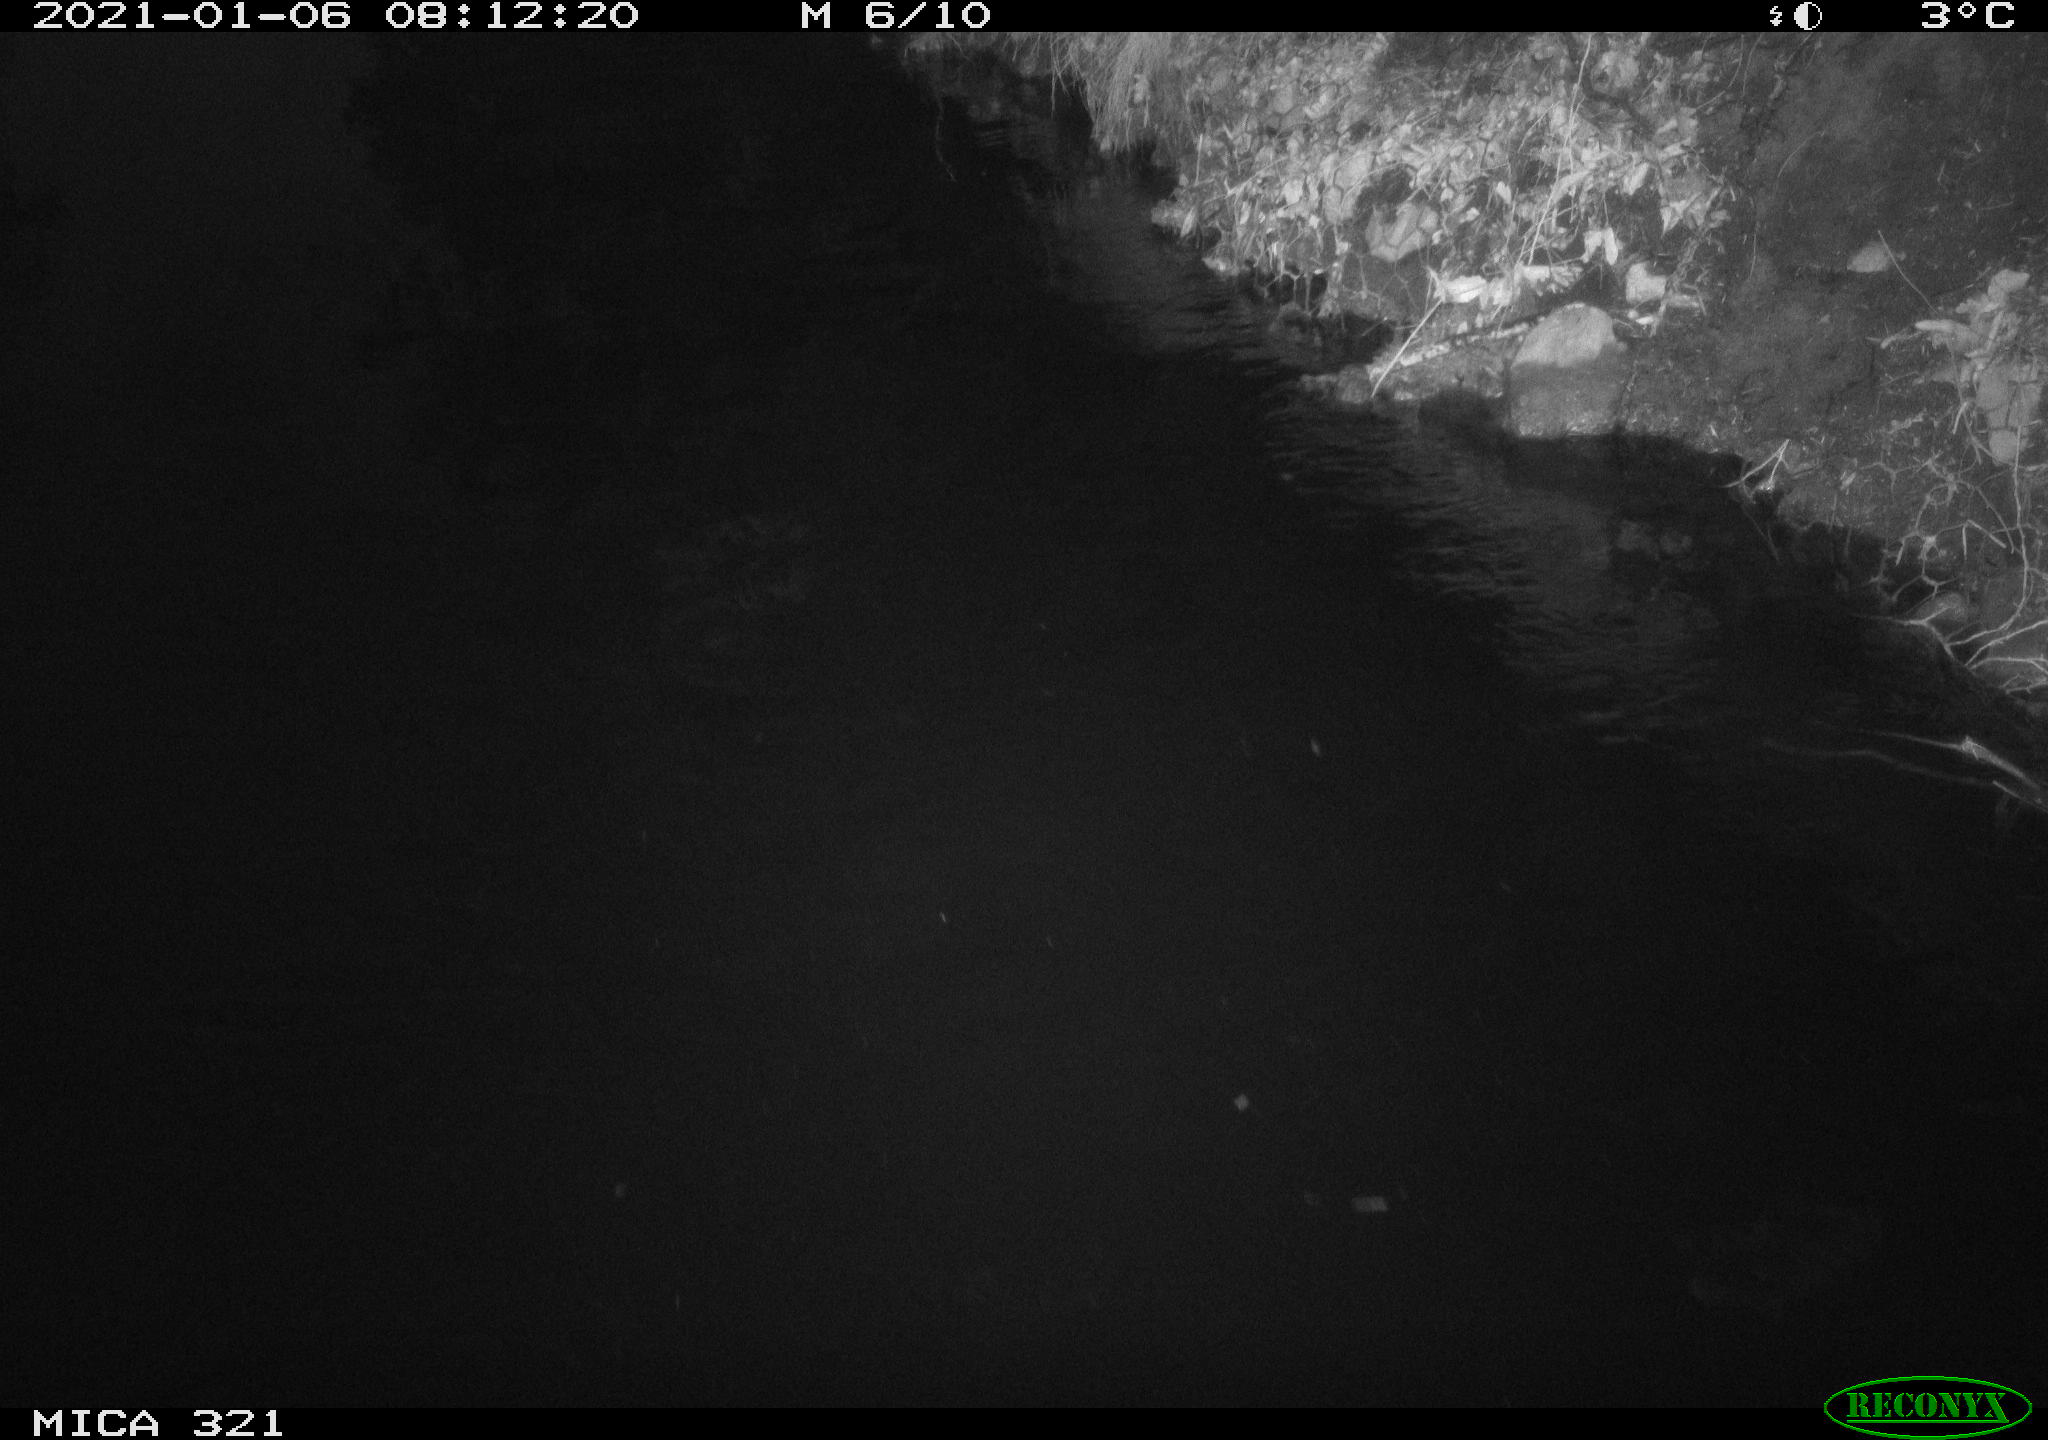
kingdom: Animalia
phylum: Chordata
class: Aves
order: Anseriformes
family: Anatidae
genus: Anas
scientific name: Anas platyrhynchos
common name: Mallard
